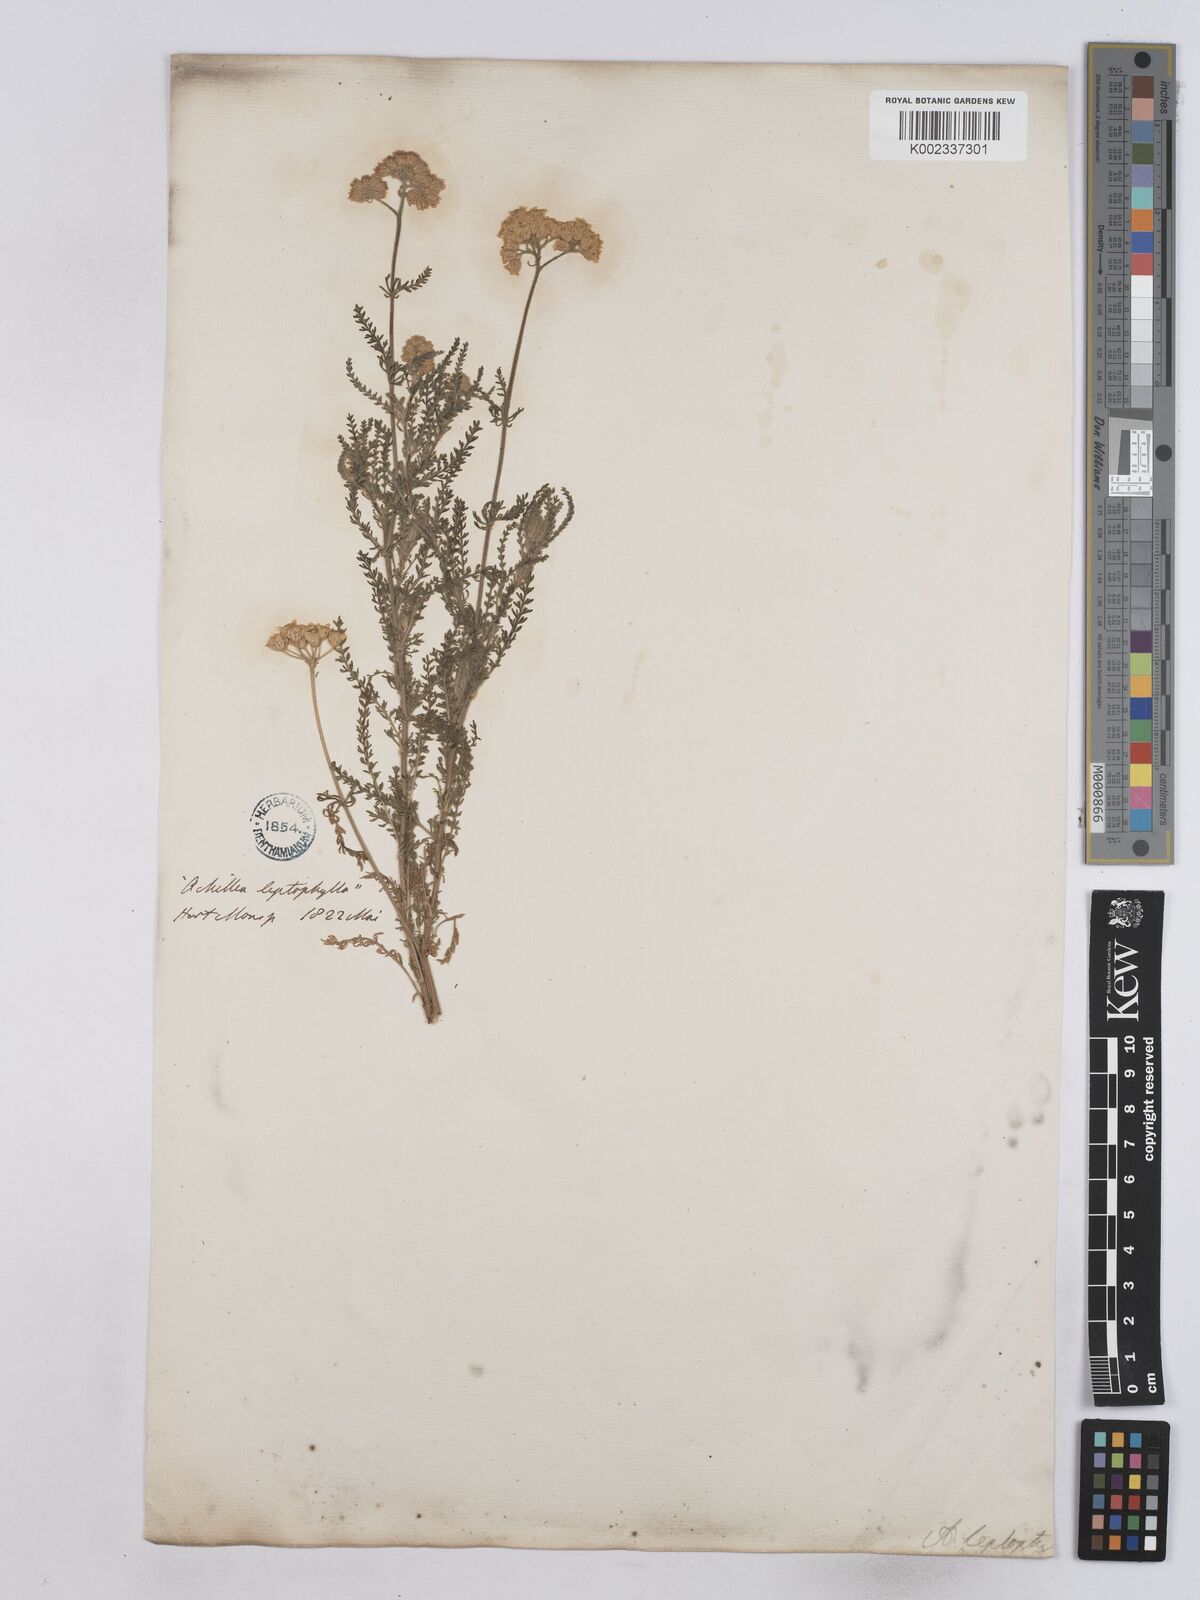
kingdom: Plantae
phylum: Tracheophyta
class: Magnoliopsida
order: Asterales
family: Asteraceae
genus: Achillea
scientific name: Achillea leptophylla
